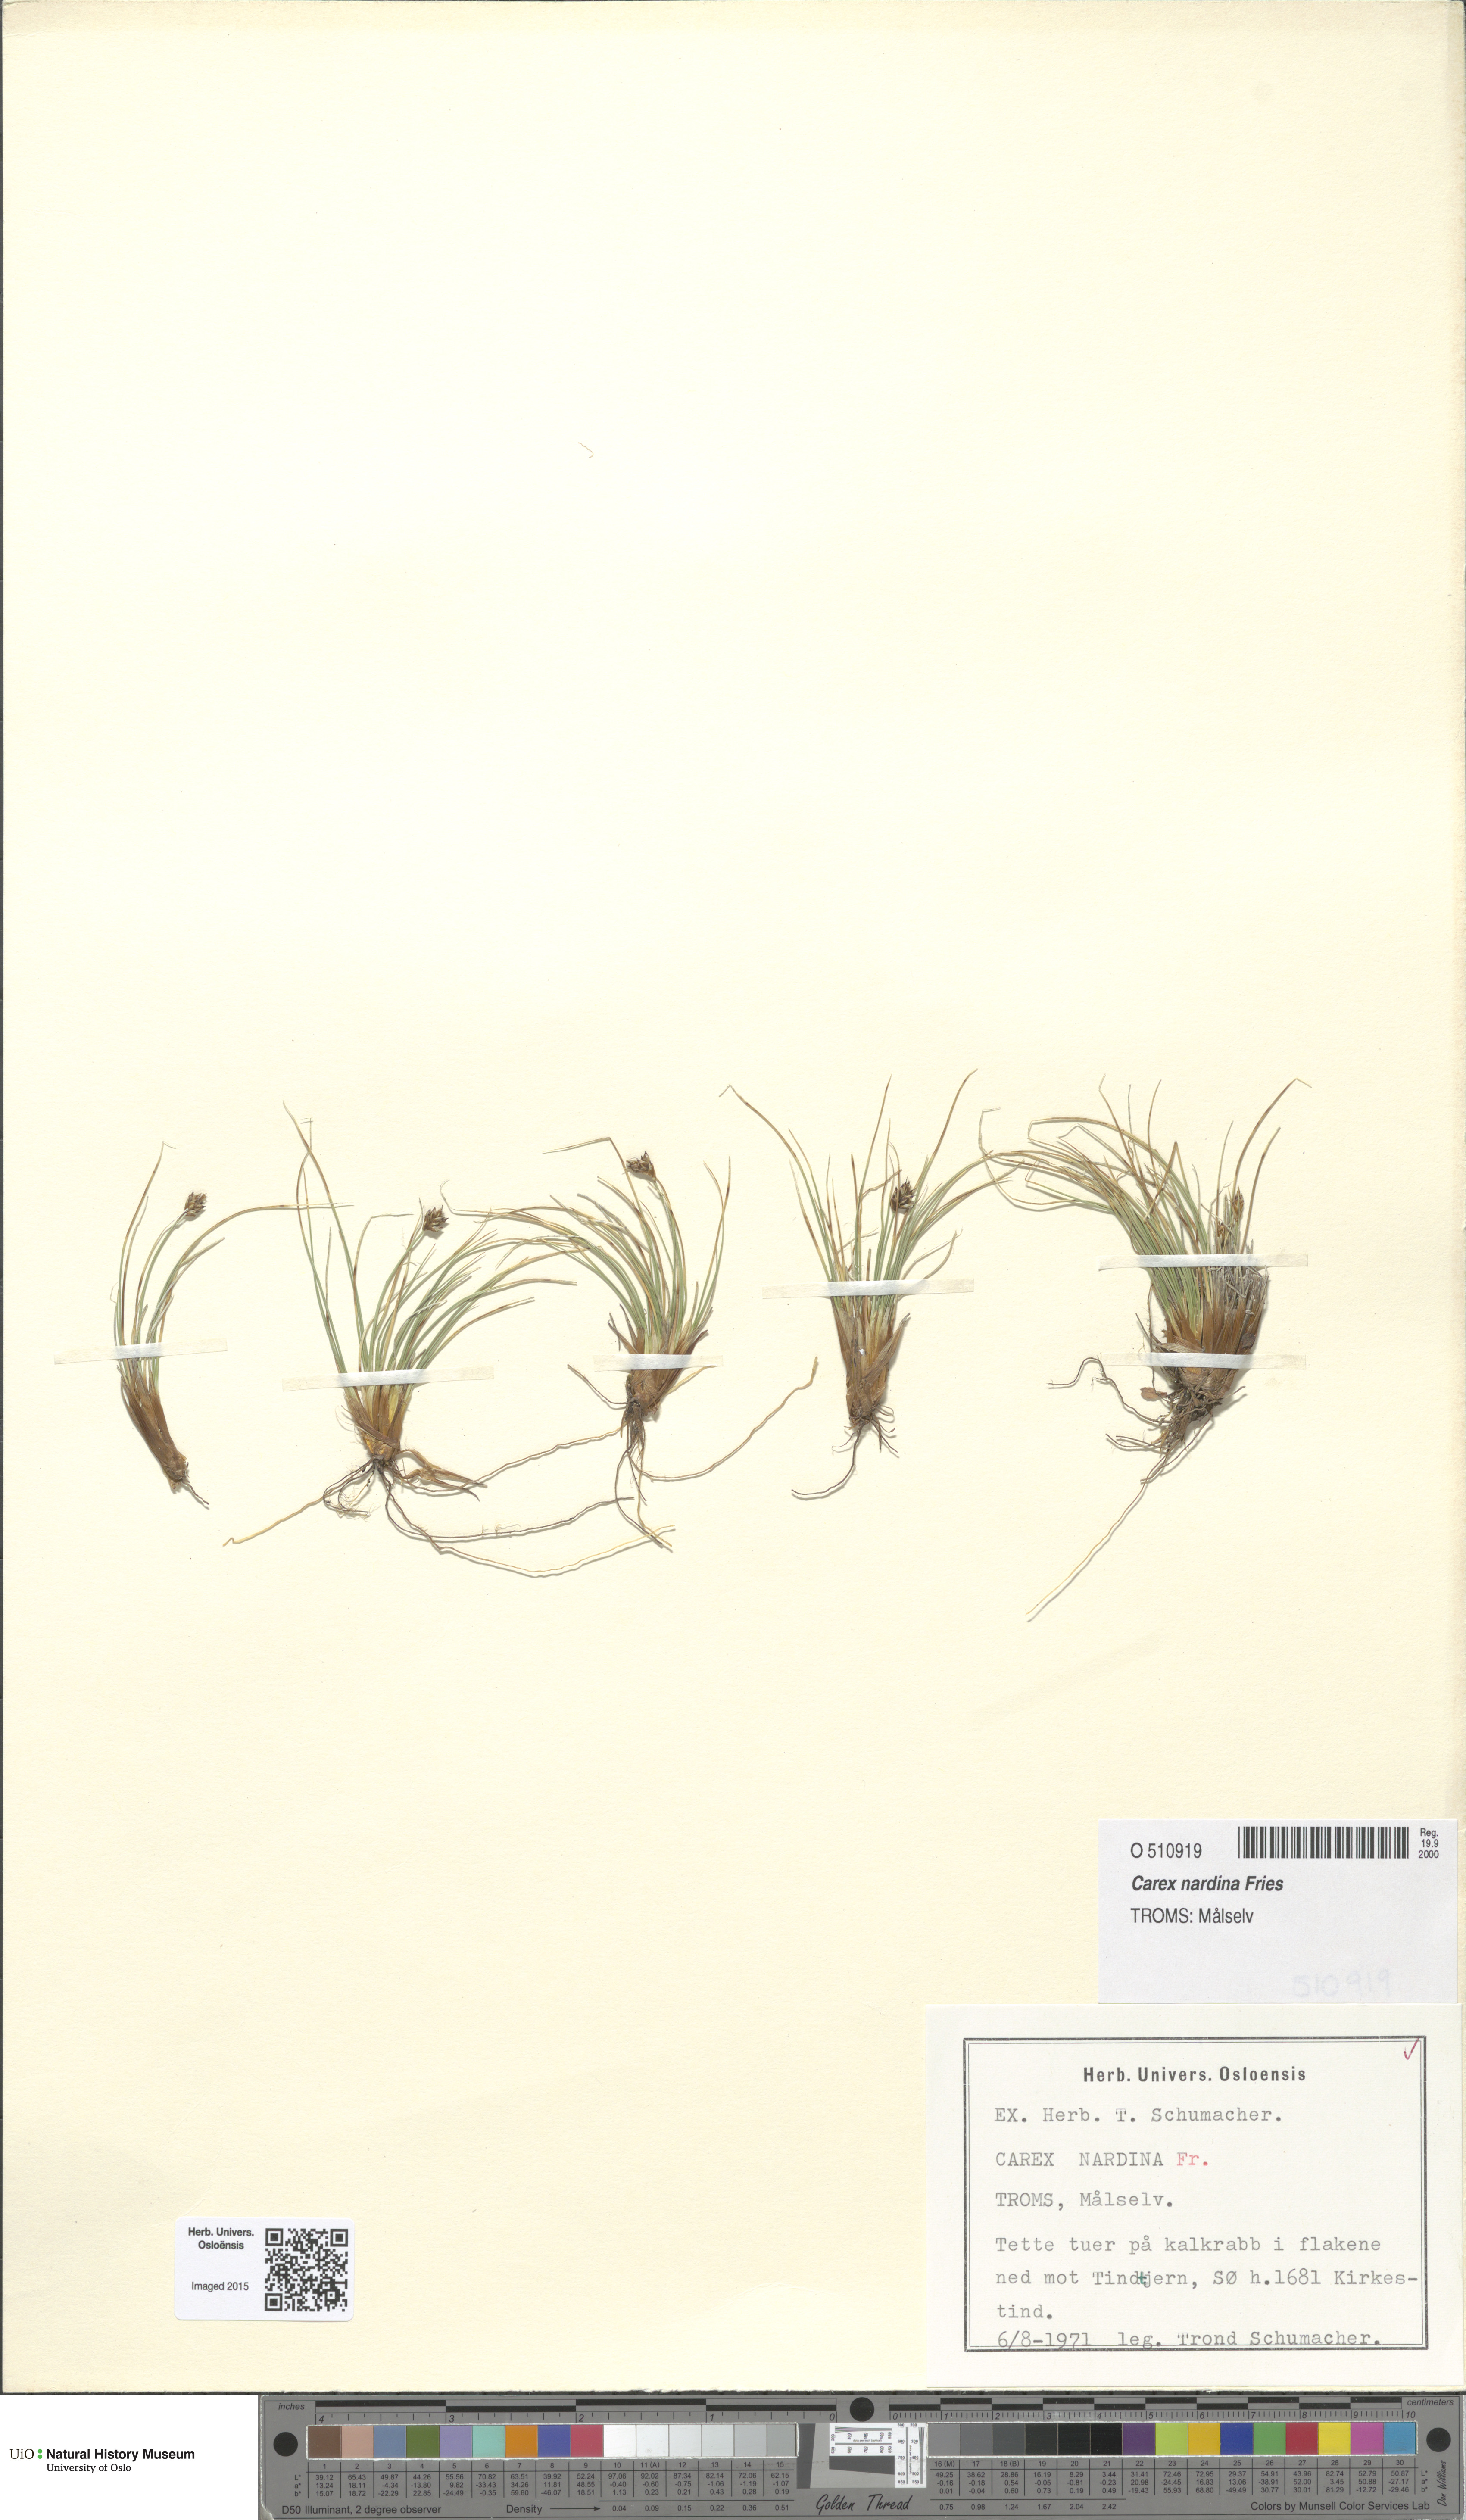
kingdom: Plantae
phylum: Tracheophyta
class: Liliopsida
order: Poales
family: Cyperaceae
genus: Carex
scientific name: Carex nardina
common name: Nard sedge
